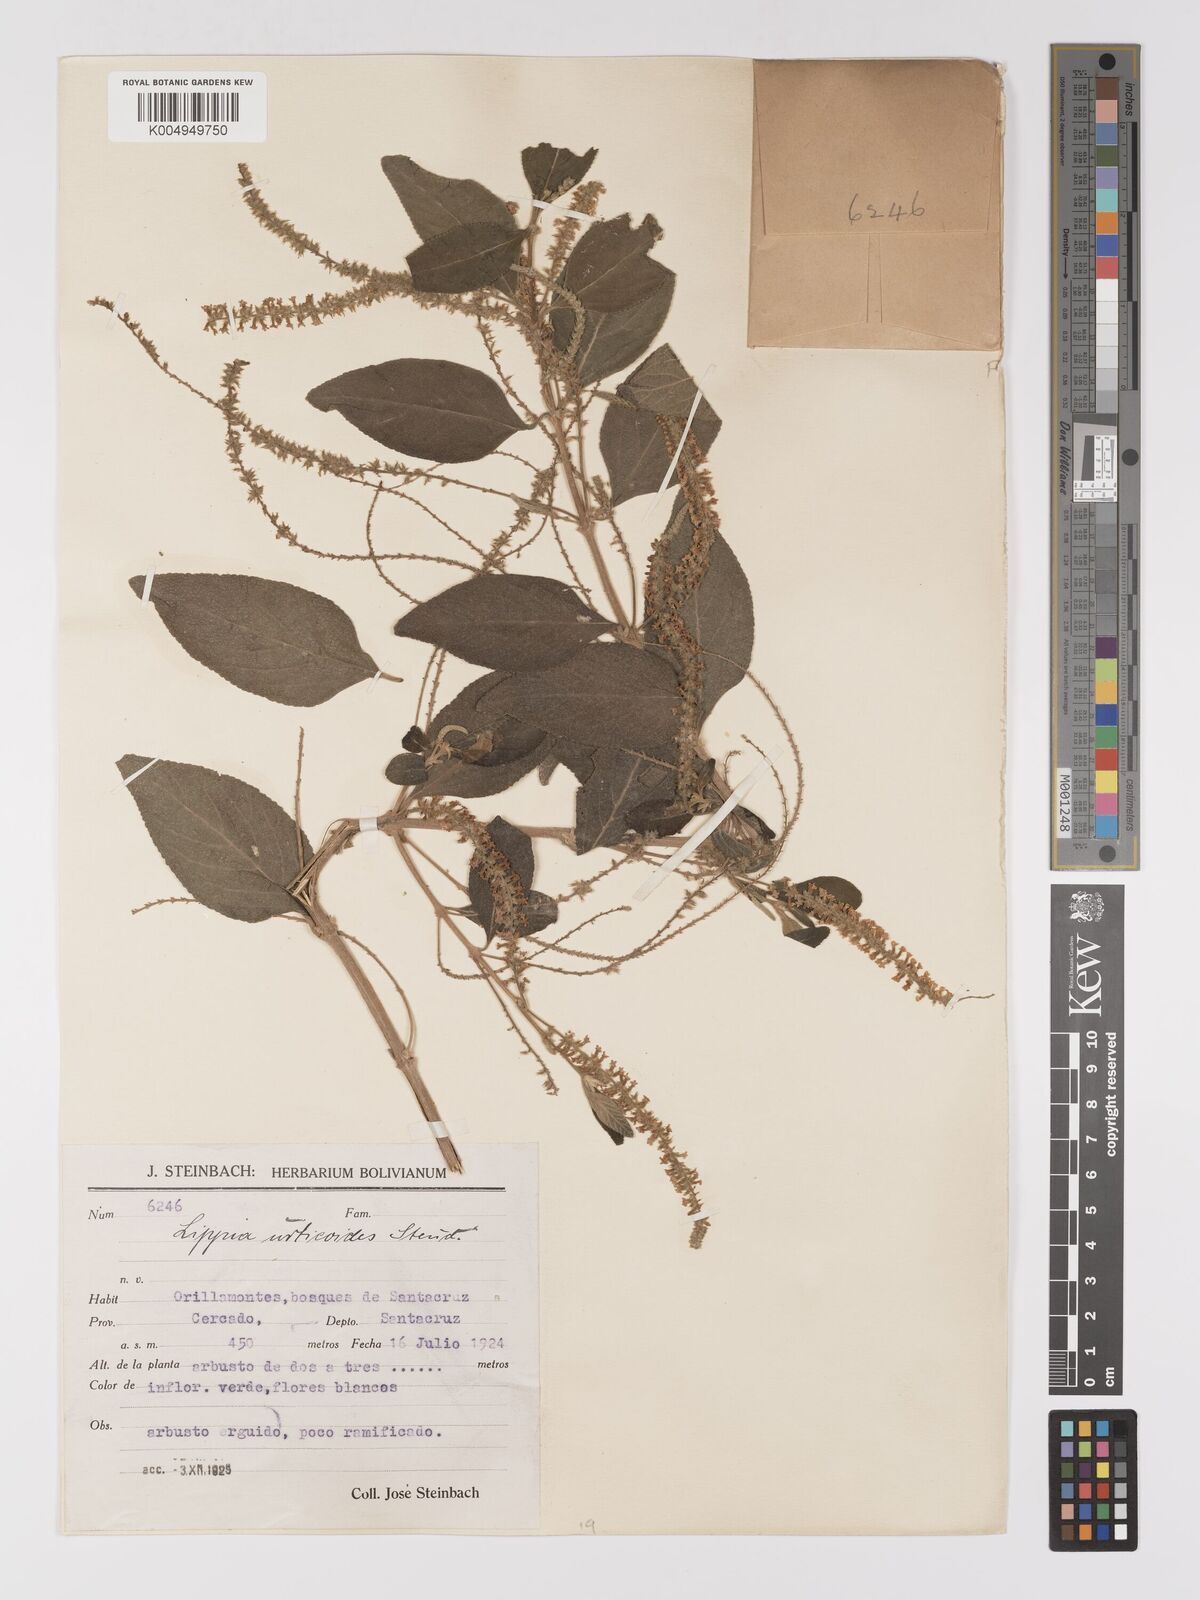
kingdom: Plantae
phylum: Tracheophyta
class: Magnoliopsida
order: Lamiales
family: Verbenaceae
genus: Aloysia
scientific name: Aloysia virgata
